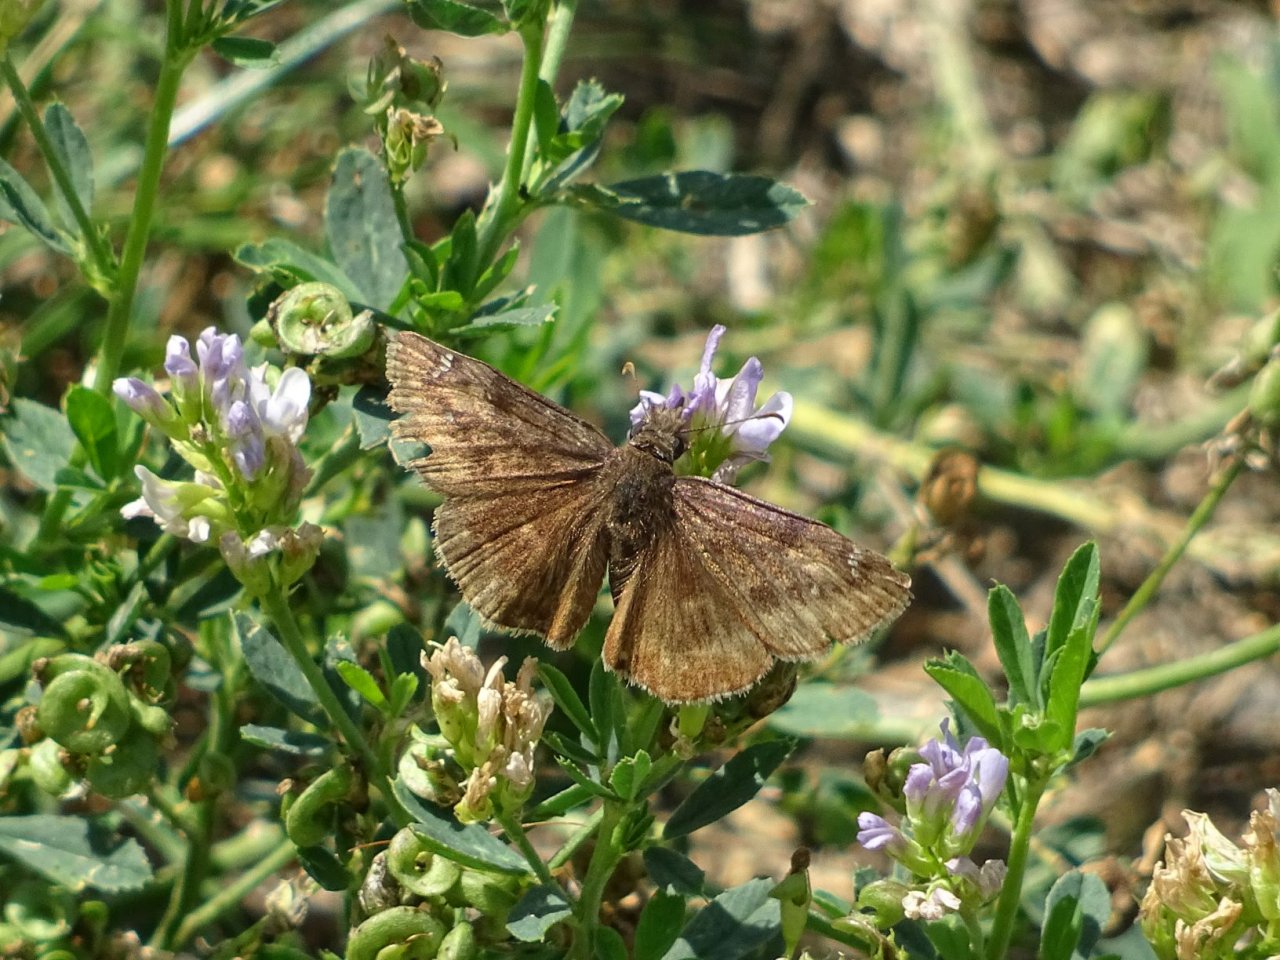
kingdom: Animalia
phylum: Arthropoda
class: Insecta
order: Lepidoptera
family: Hesperiidae
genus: Gesta
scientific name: Gesta
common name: Wild Indigo Duskywing
